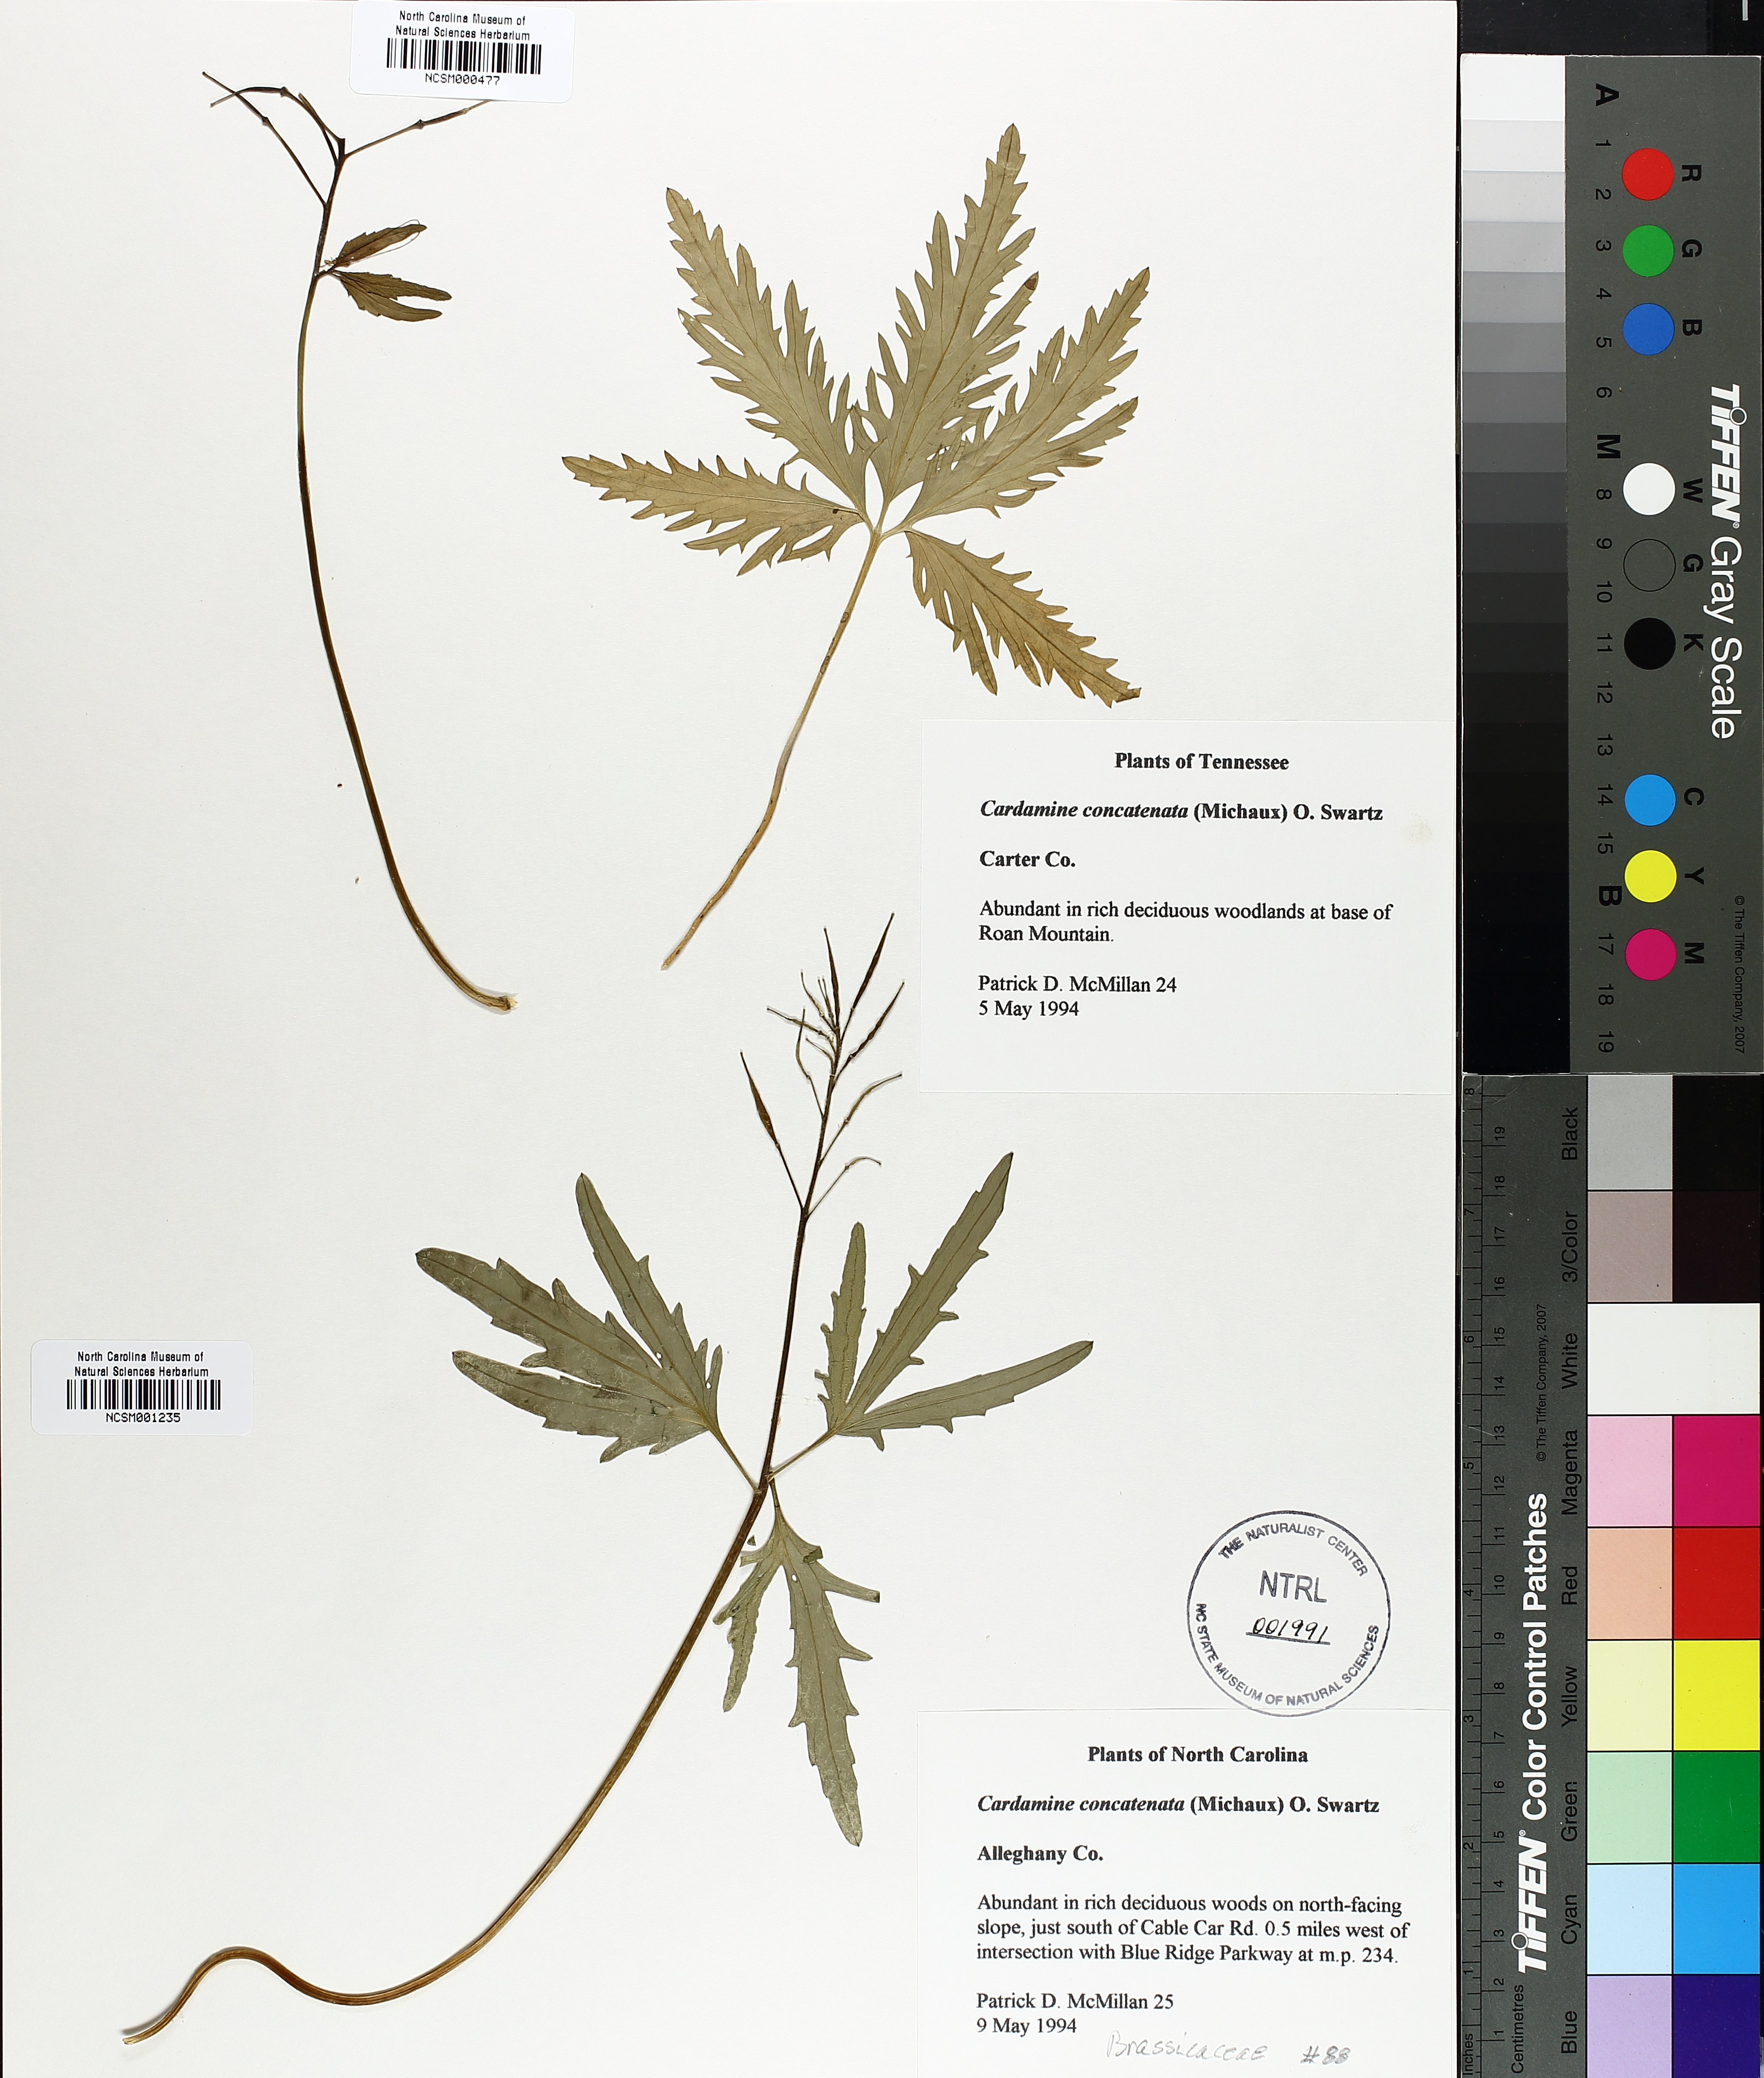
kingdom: Plantae
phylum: Tracheophyta
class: Magnoliopsida
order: Brassicales
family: Brassicaceae
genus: Cardamine
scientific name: Cardamine concatenata
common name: Cut-leaf toothcup
